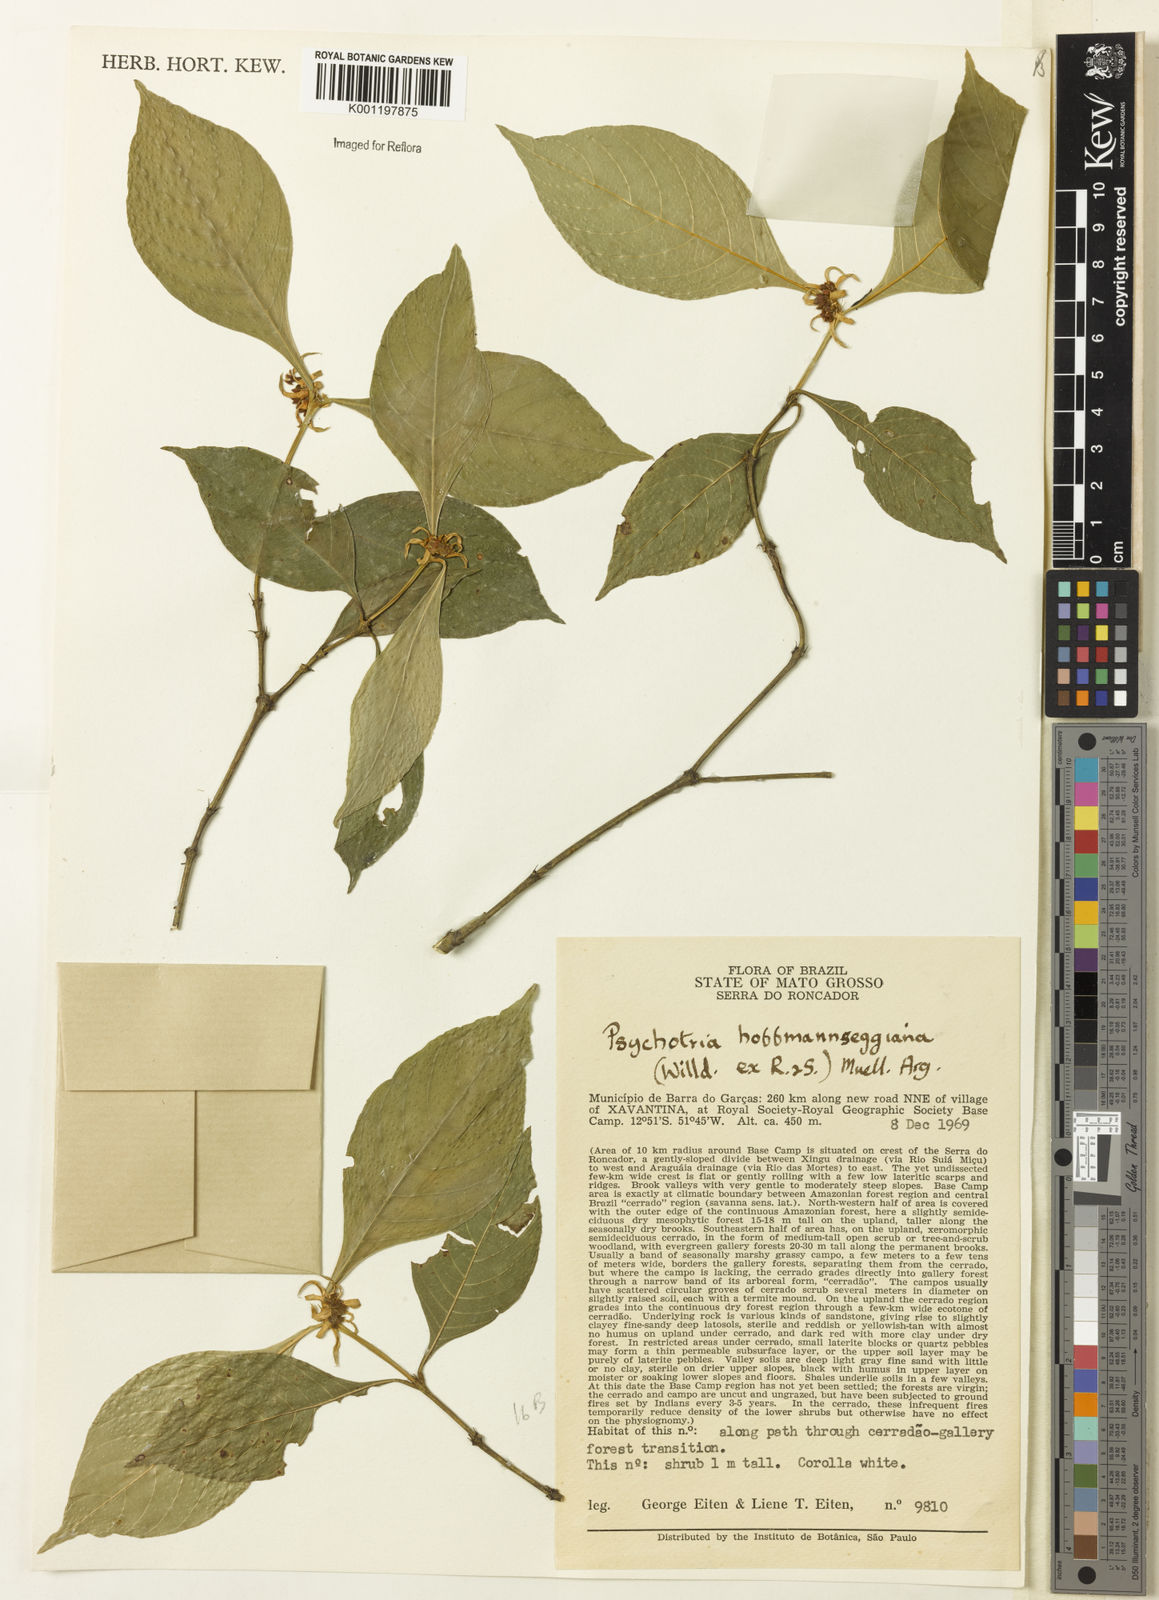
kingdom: Plantae
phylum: Tracheophyta
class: Magnoliopsida
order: Gentianales
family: Rubiaceae
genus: Psychotria
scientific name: Psychotria
